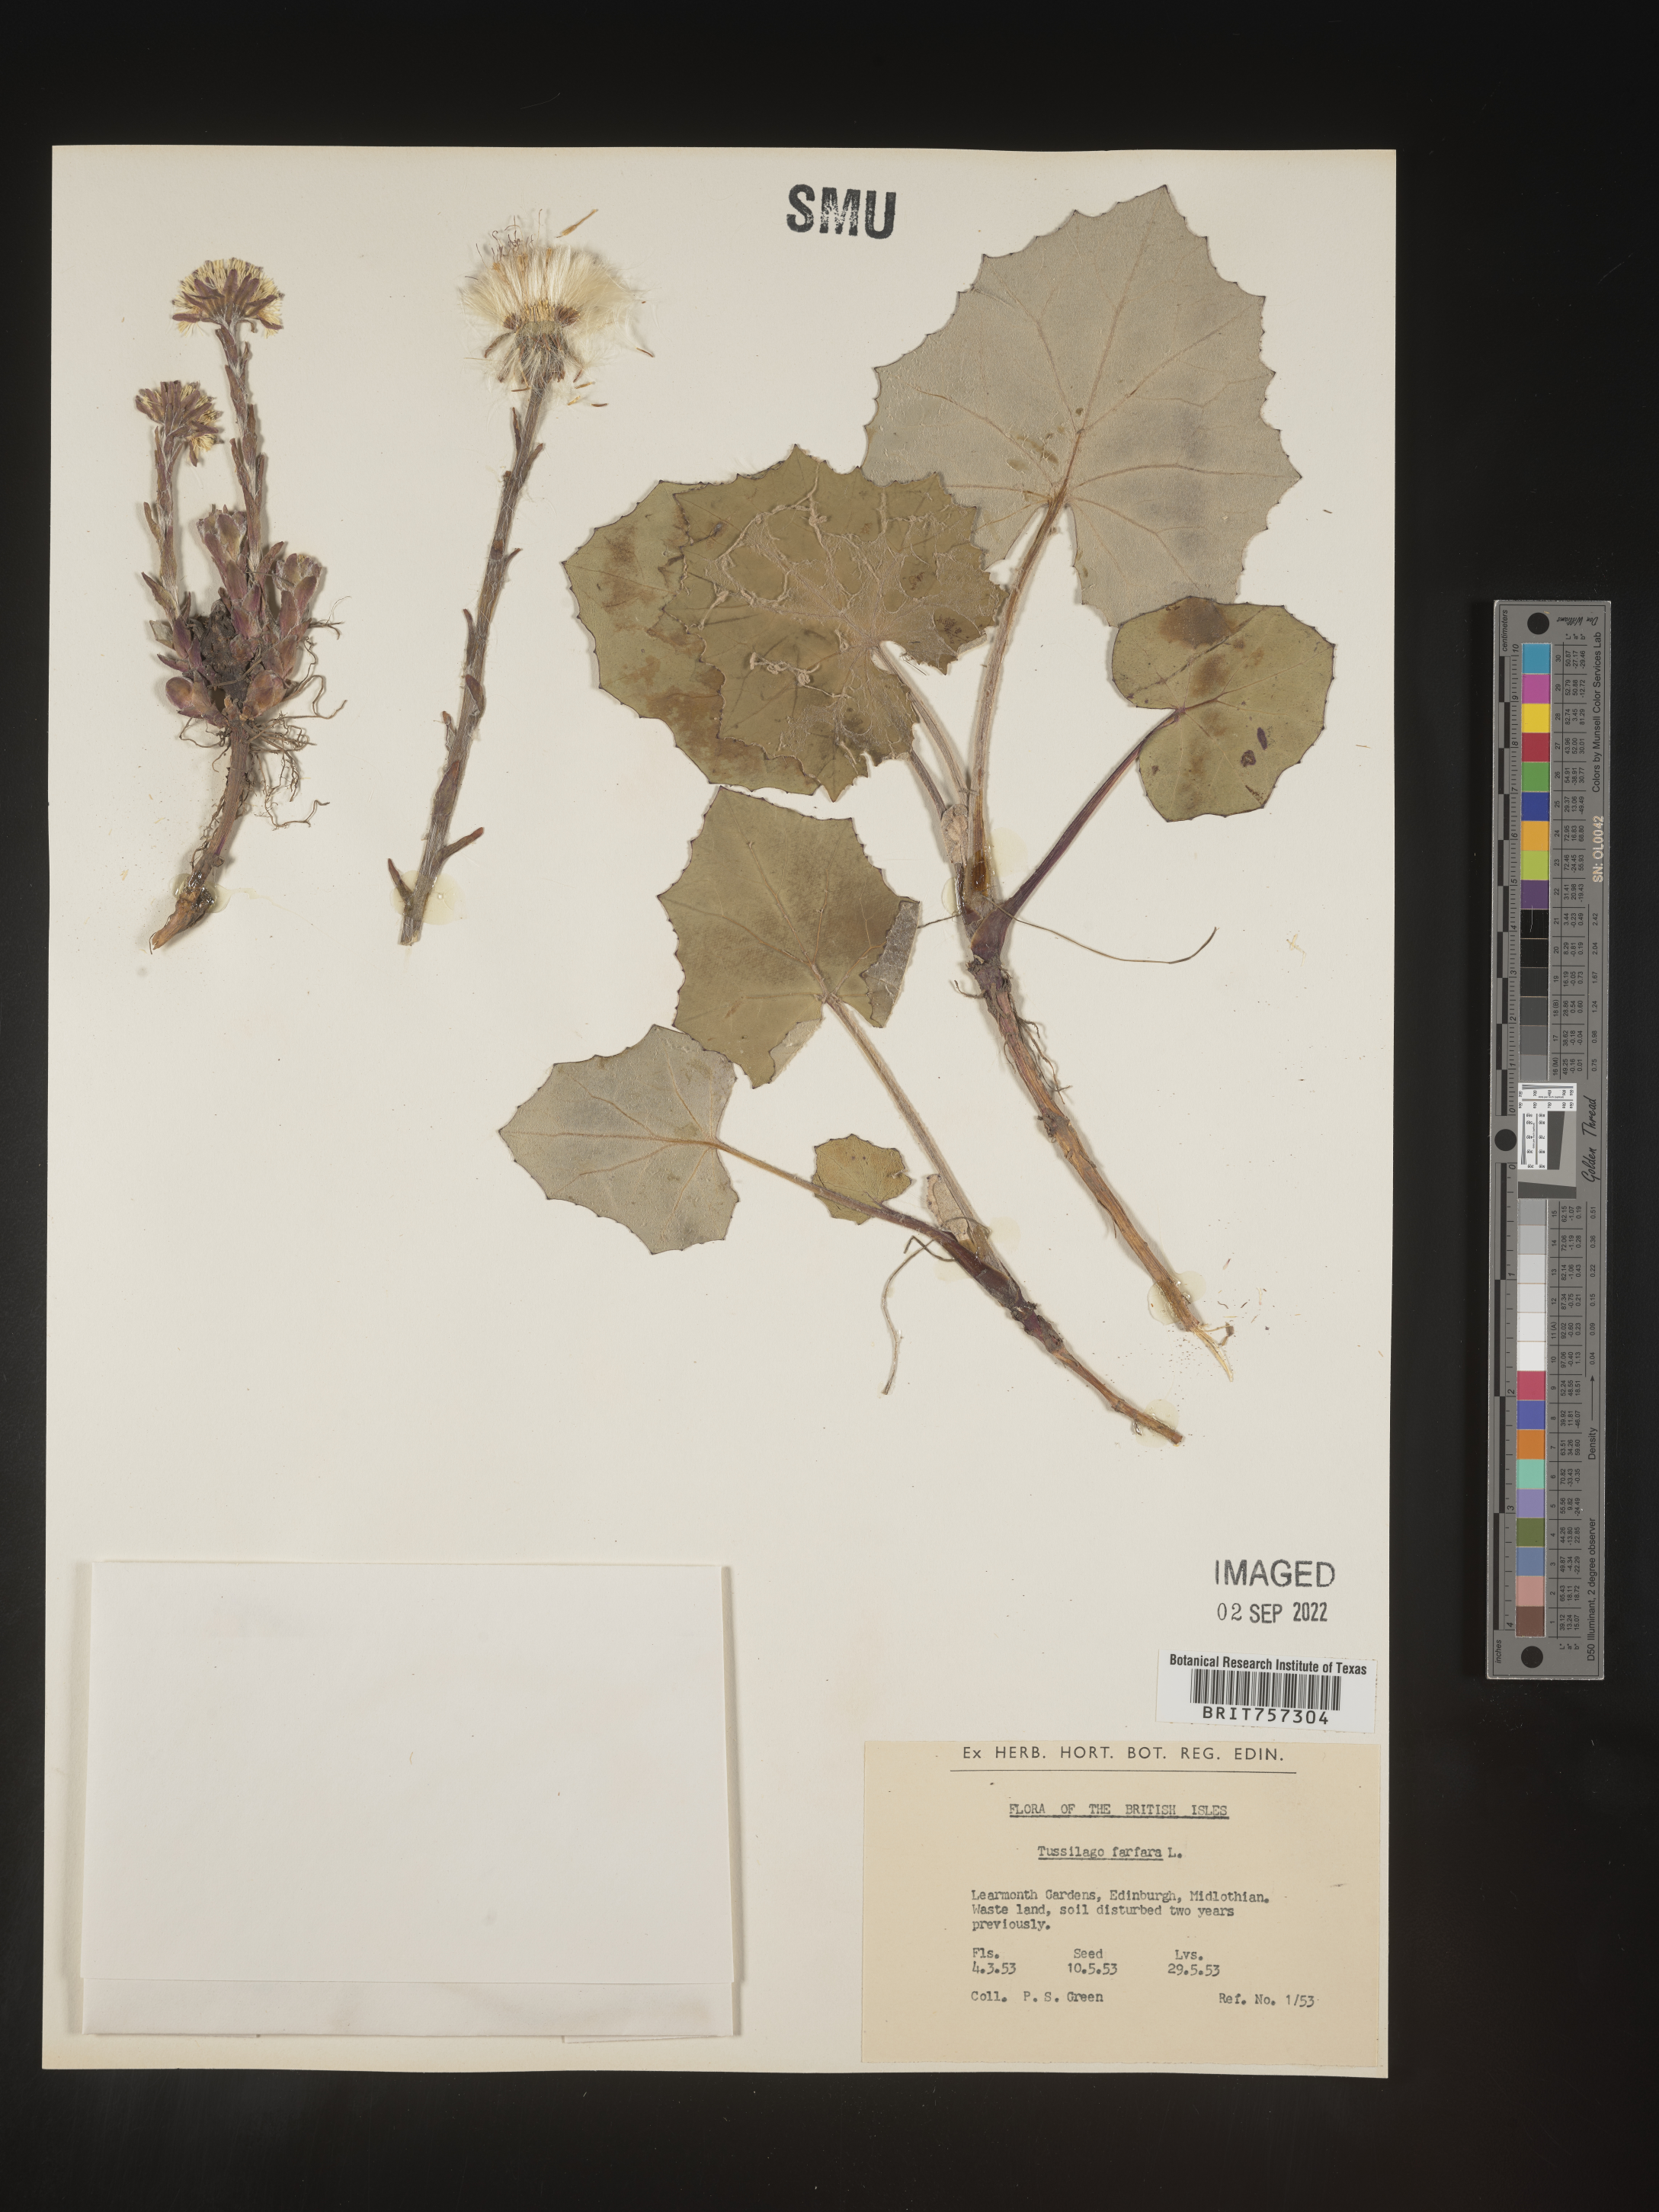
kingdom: Plantae
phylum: Tracheophyta
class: Magnoliopsida
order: Asterales
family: Asteraceae
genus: Tussilago
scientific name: Tussilago
